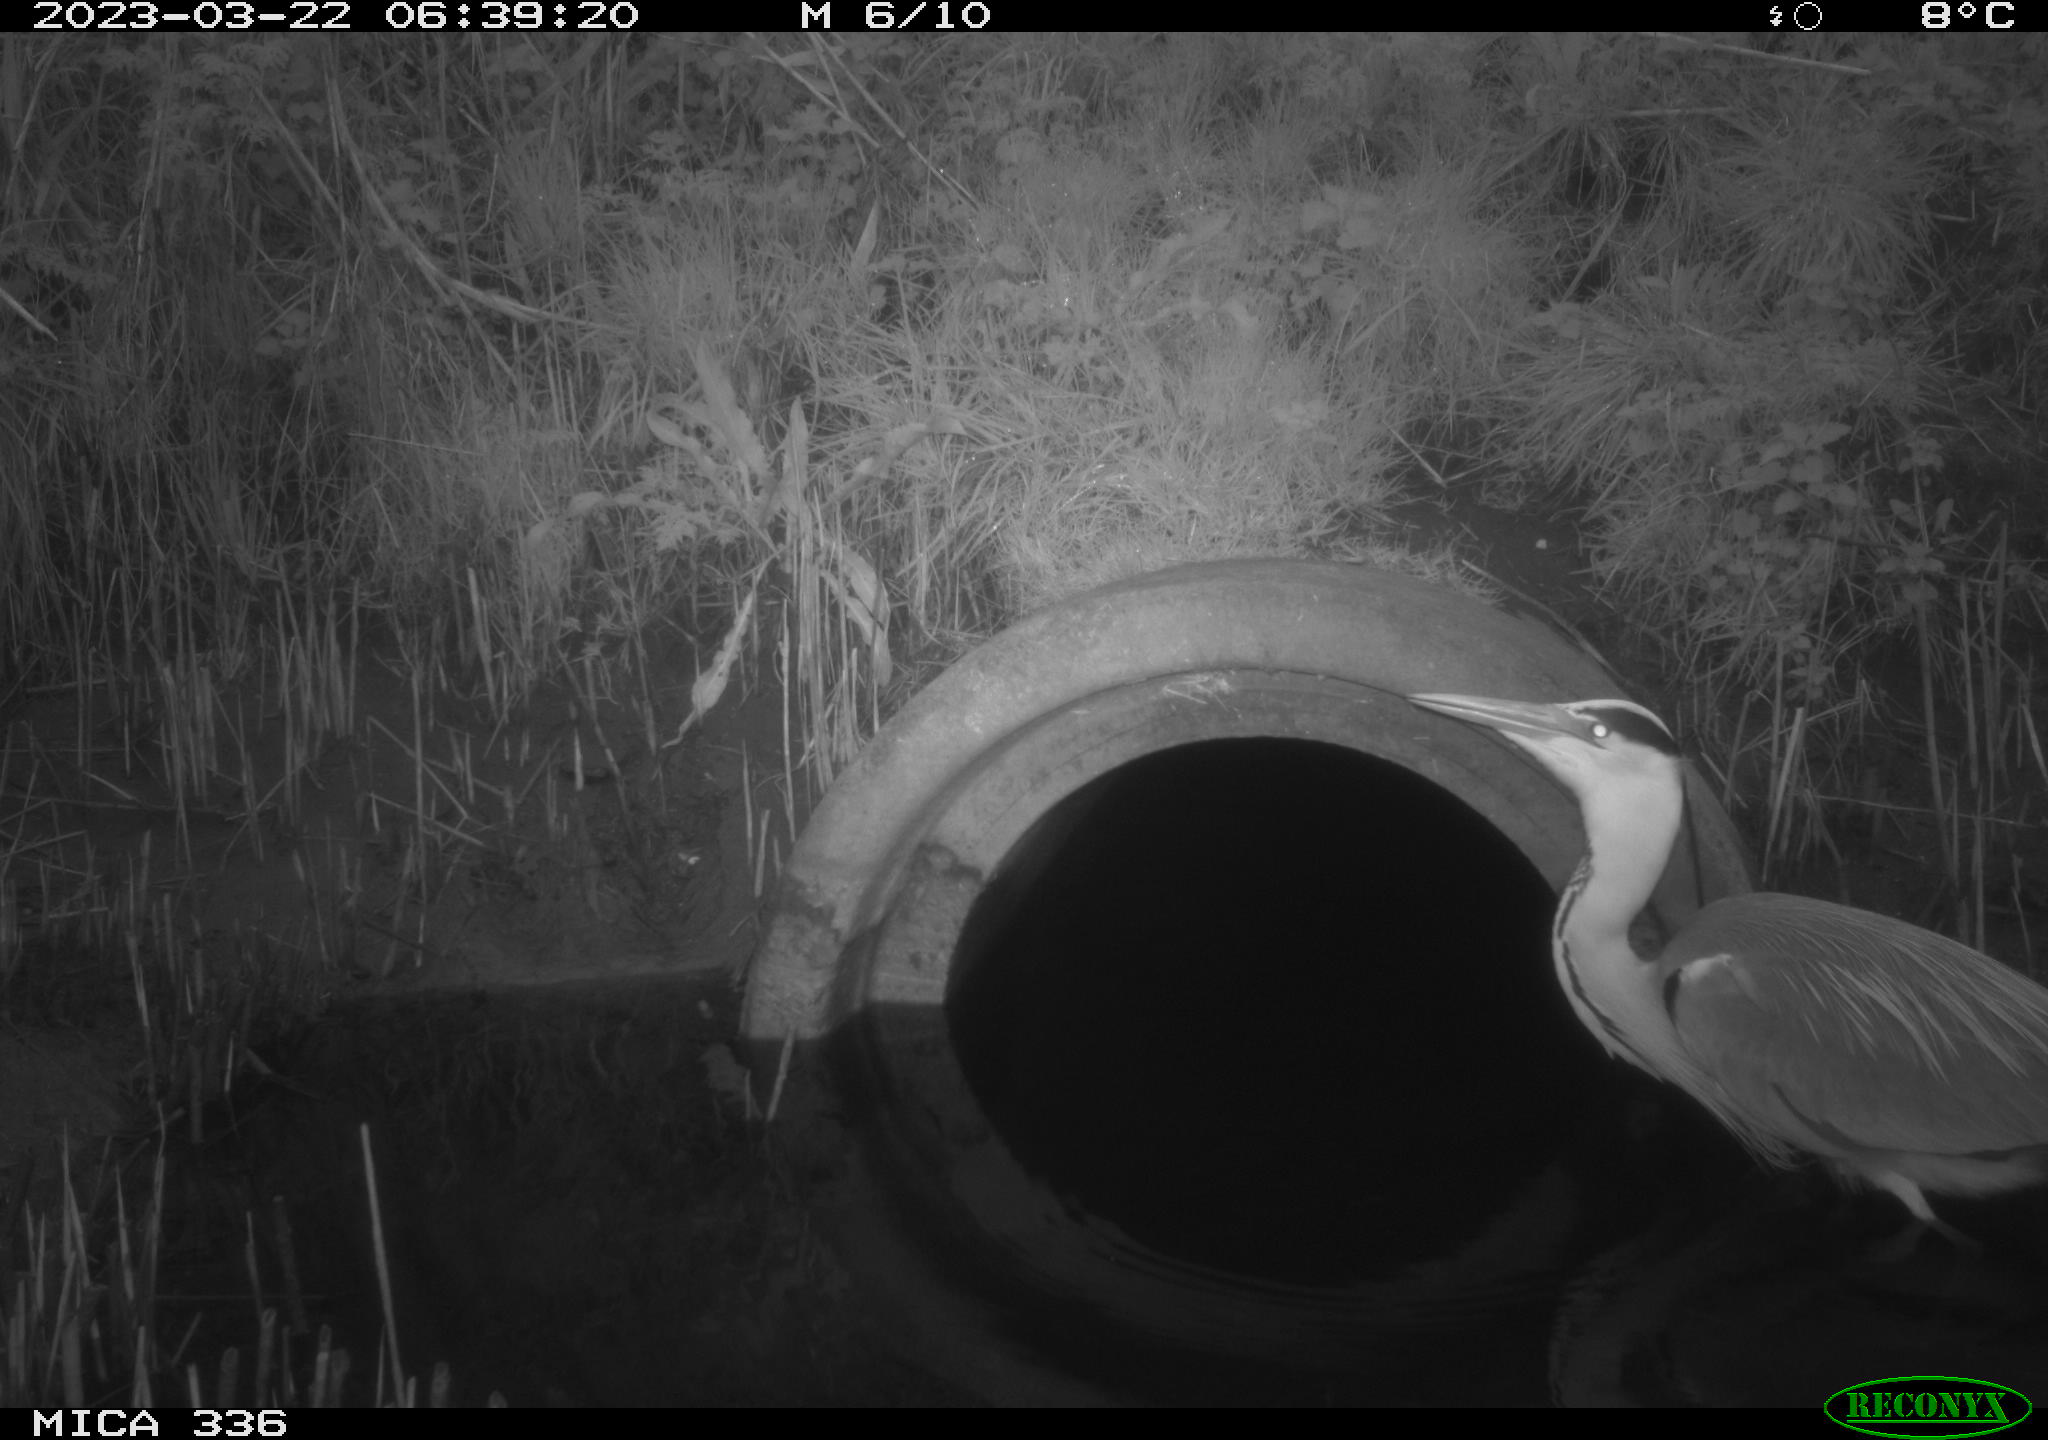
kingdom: Animalia
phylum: Chordata
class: Aves
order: Pelecaniformes
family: Ardeidae
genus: Ardea
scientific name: Ardea
